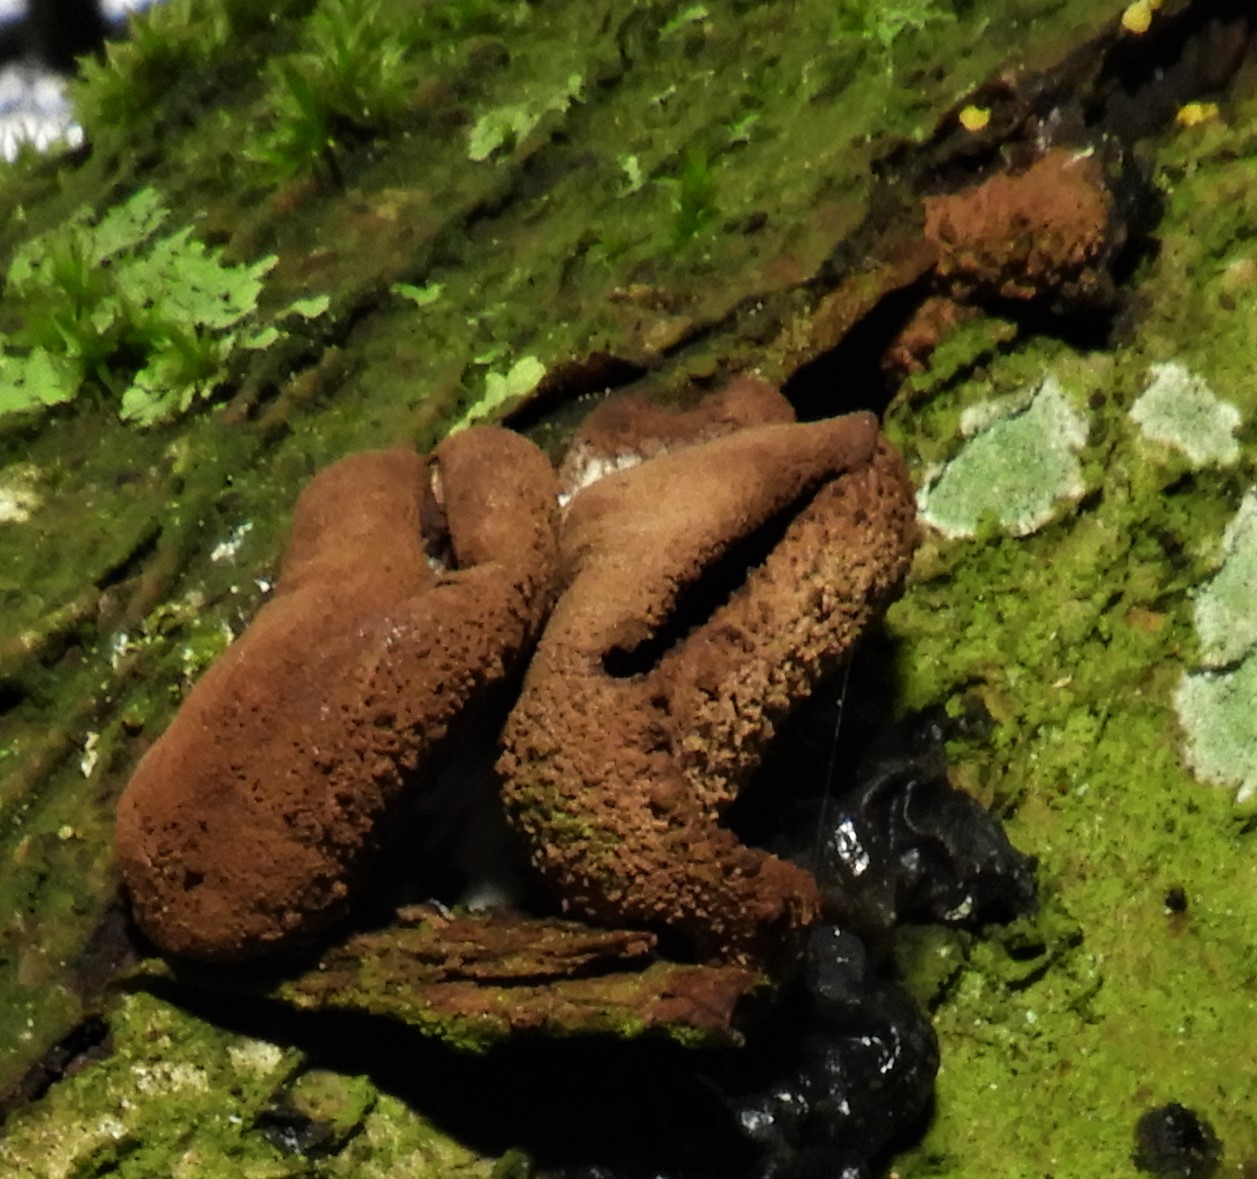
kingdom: Fungi
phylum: Ascomycota
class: Leotiomycetes
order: Helotiales
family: Cenangiaceae
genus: Encoelia
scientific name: Encoelia furfuracea
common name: hassel-læderskive
